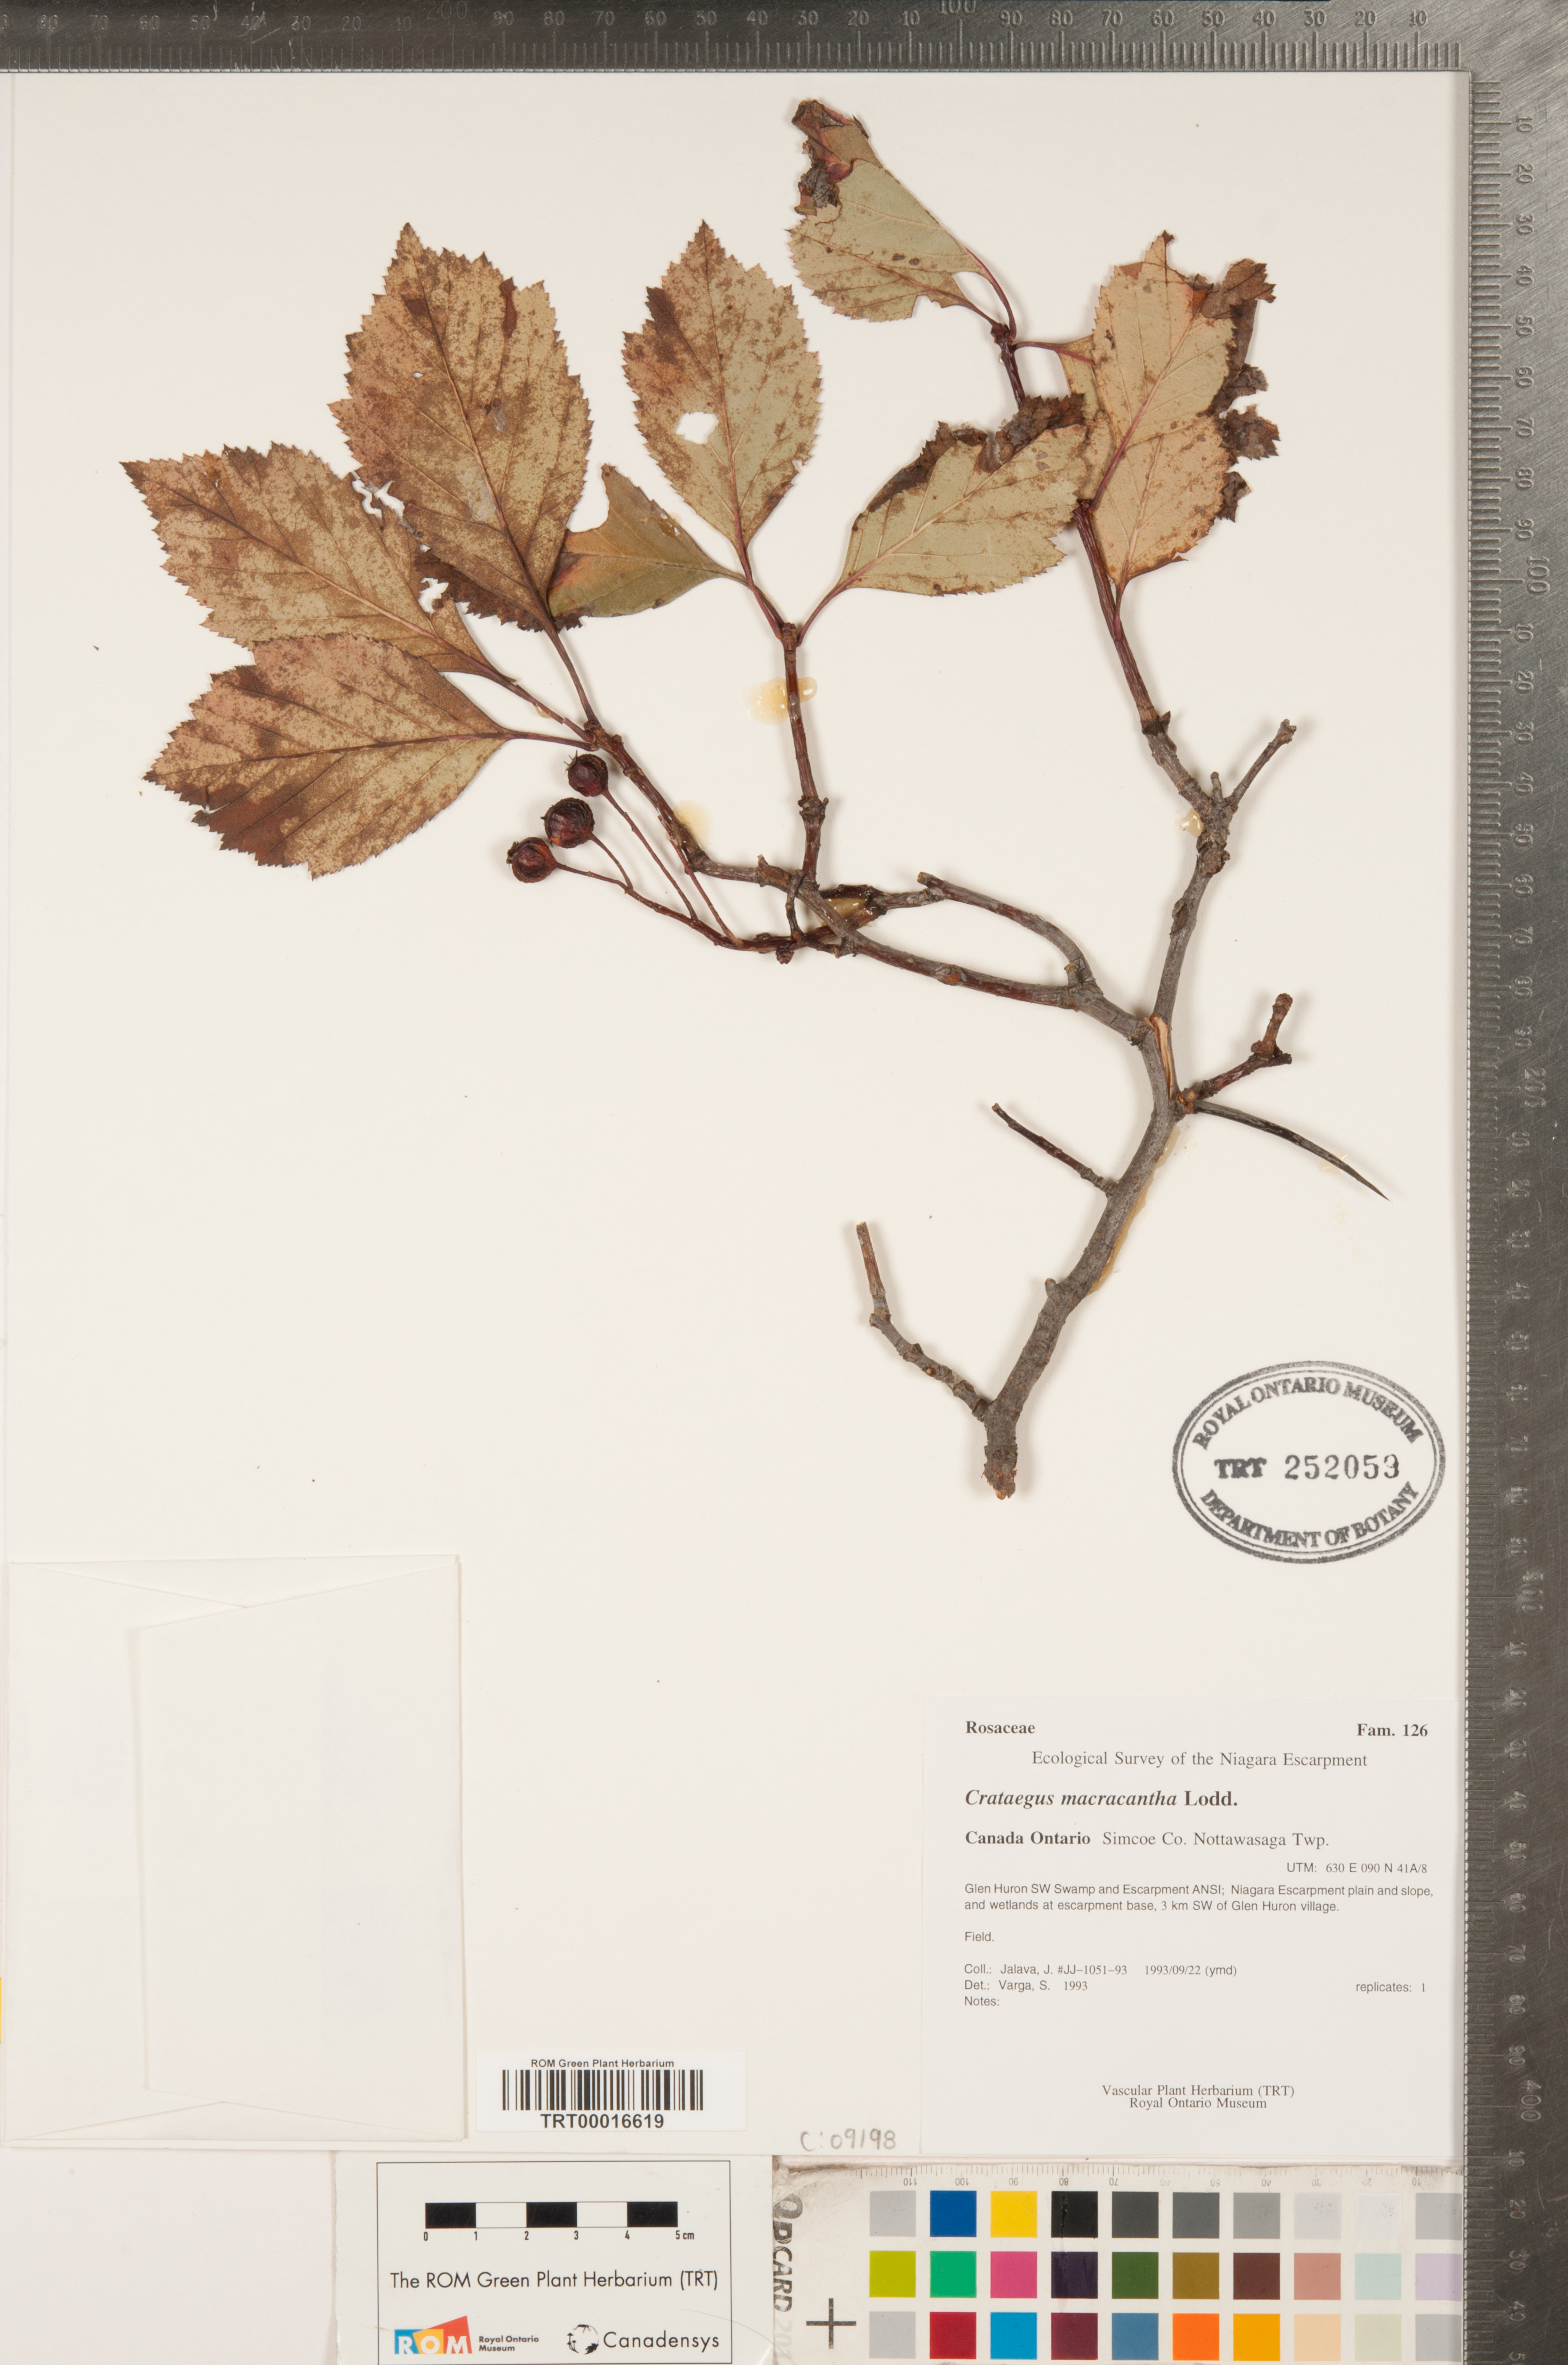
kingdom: Plantae
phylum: Tracheophyta
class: Magnoliopsida
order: Rosales
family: Rosaceae
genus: Crataegus
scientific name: Crataegus macracantha
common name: Large-thorn hawthorn
